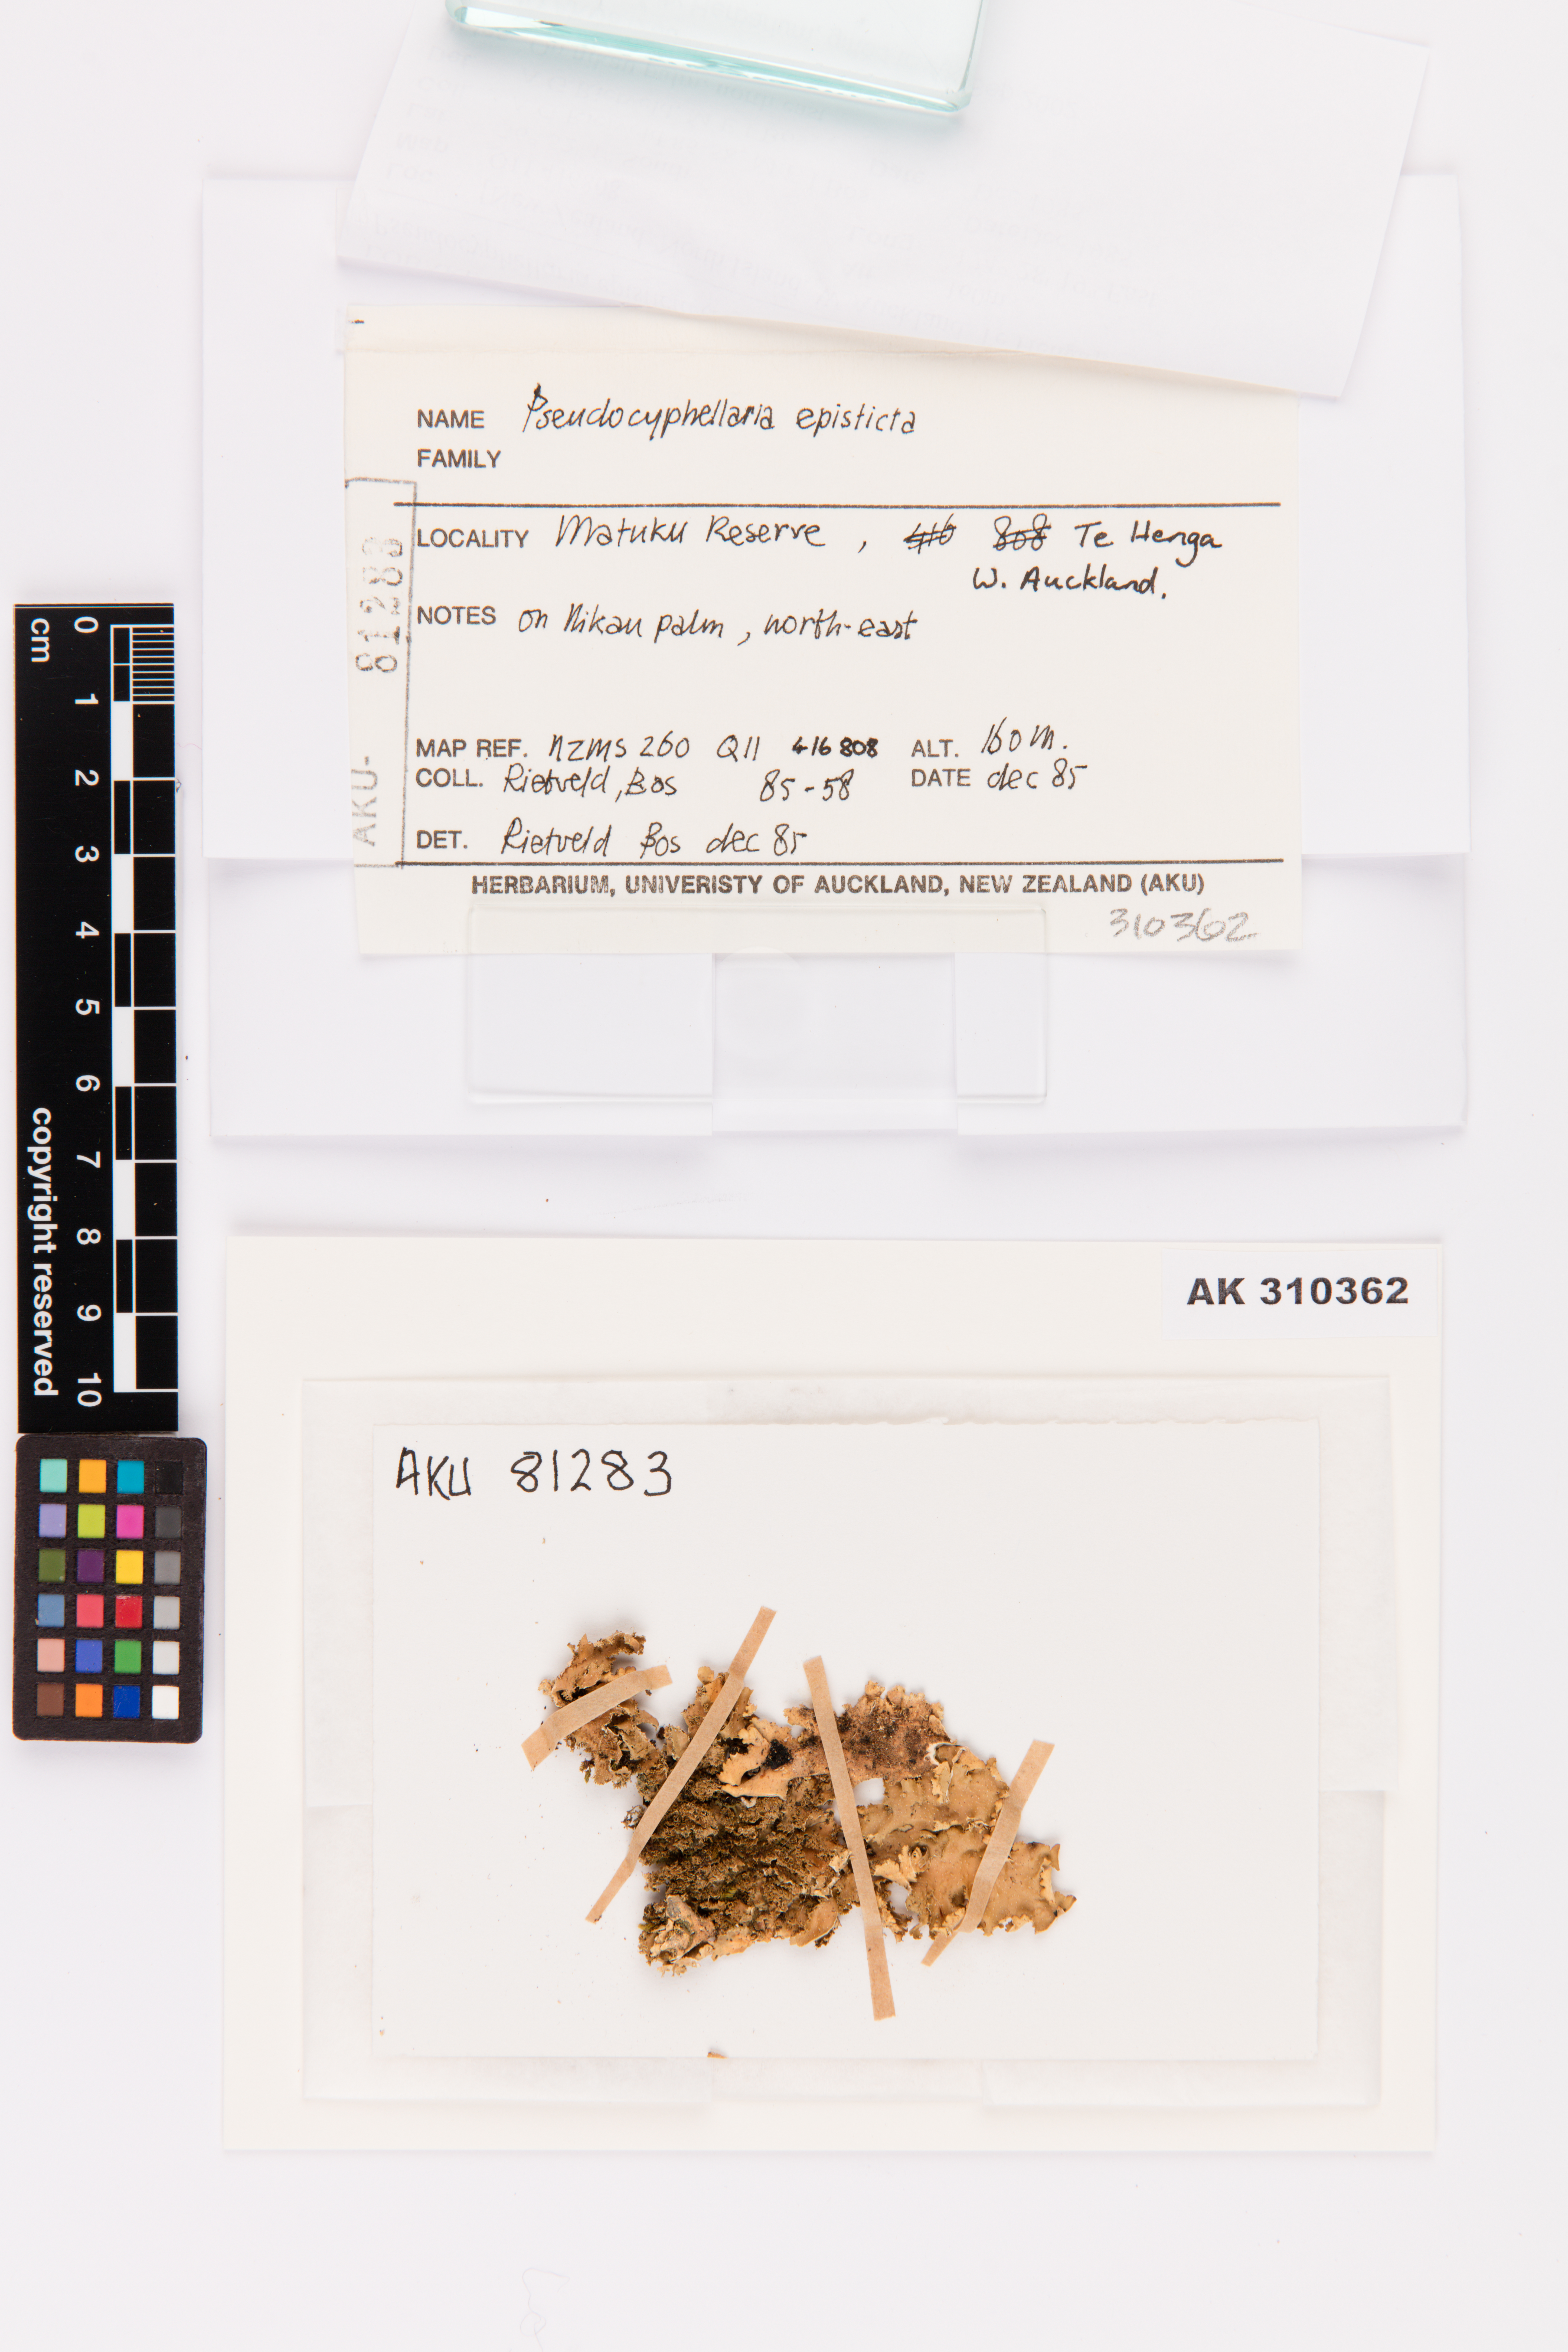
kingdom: Fungi
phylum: Ascomycota
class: Lecanoromycetes
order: Peltigerales
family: Lobariaceae
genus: Pseudocyphellaria
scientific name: Pseudocyphellaria episticta
